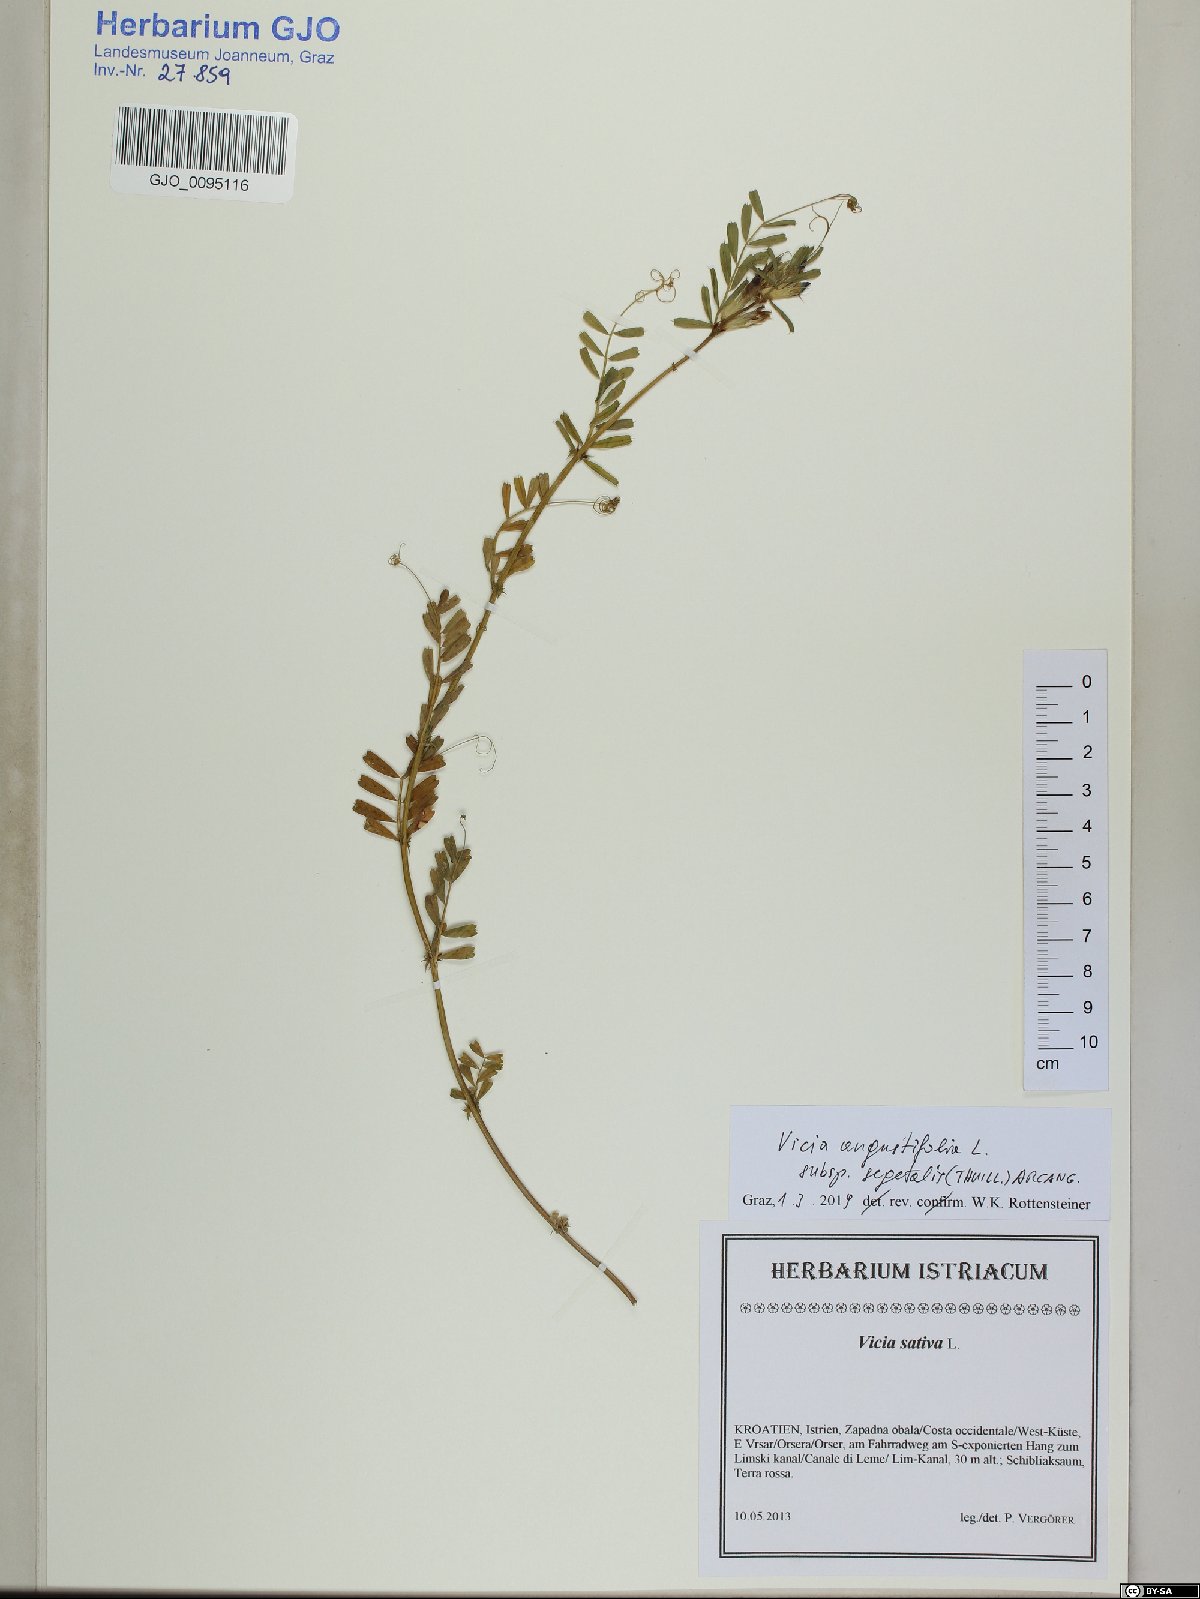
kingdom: Plantae
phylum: Tracheophyta
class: Magnoliopsida
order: Fabales
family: Fabaceae
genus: Vicia
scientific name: Vicia sativa
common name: Garden vetch
